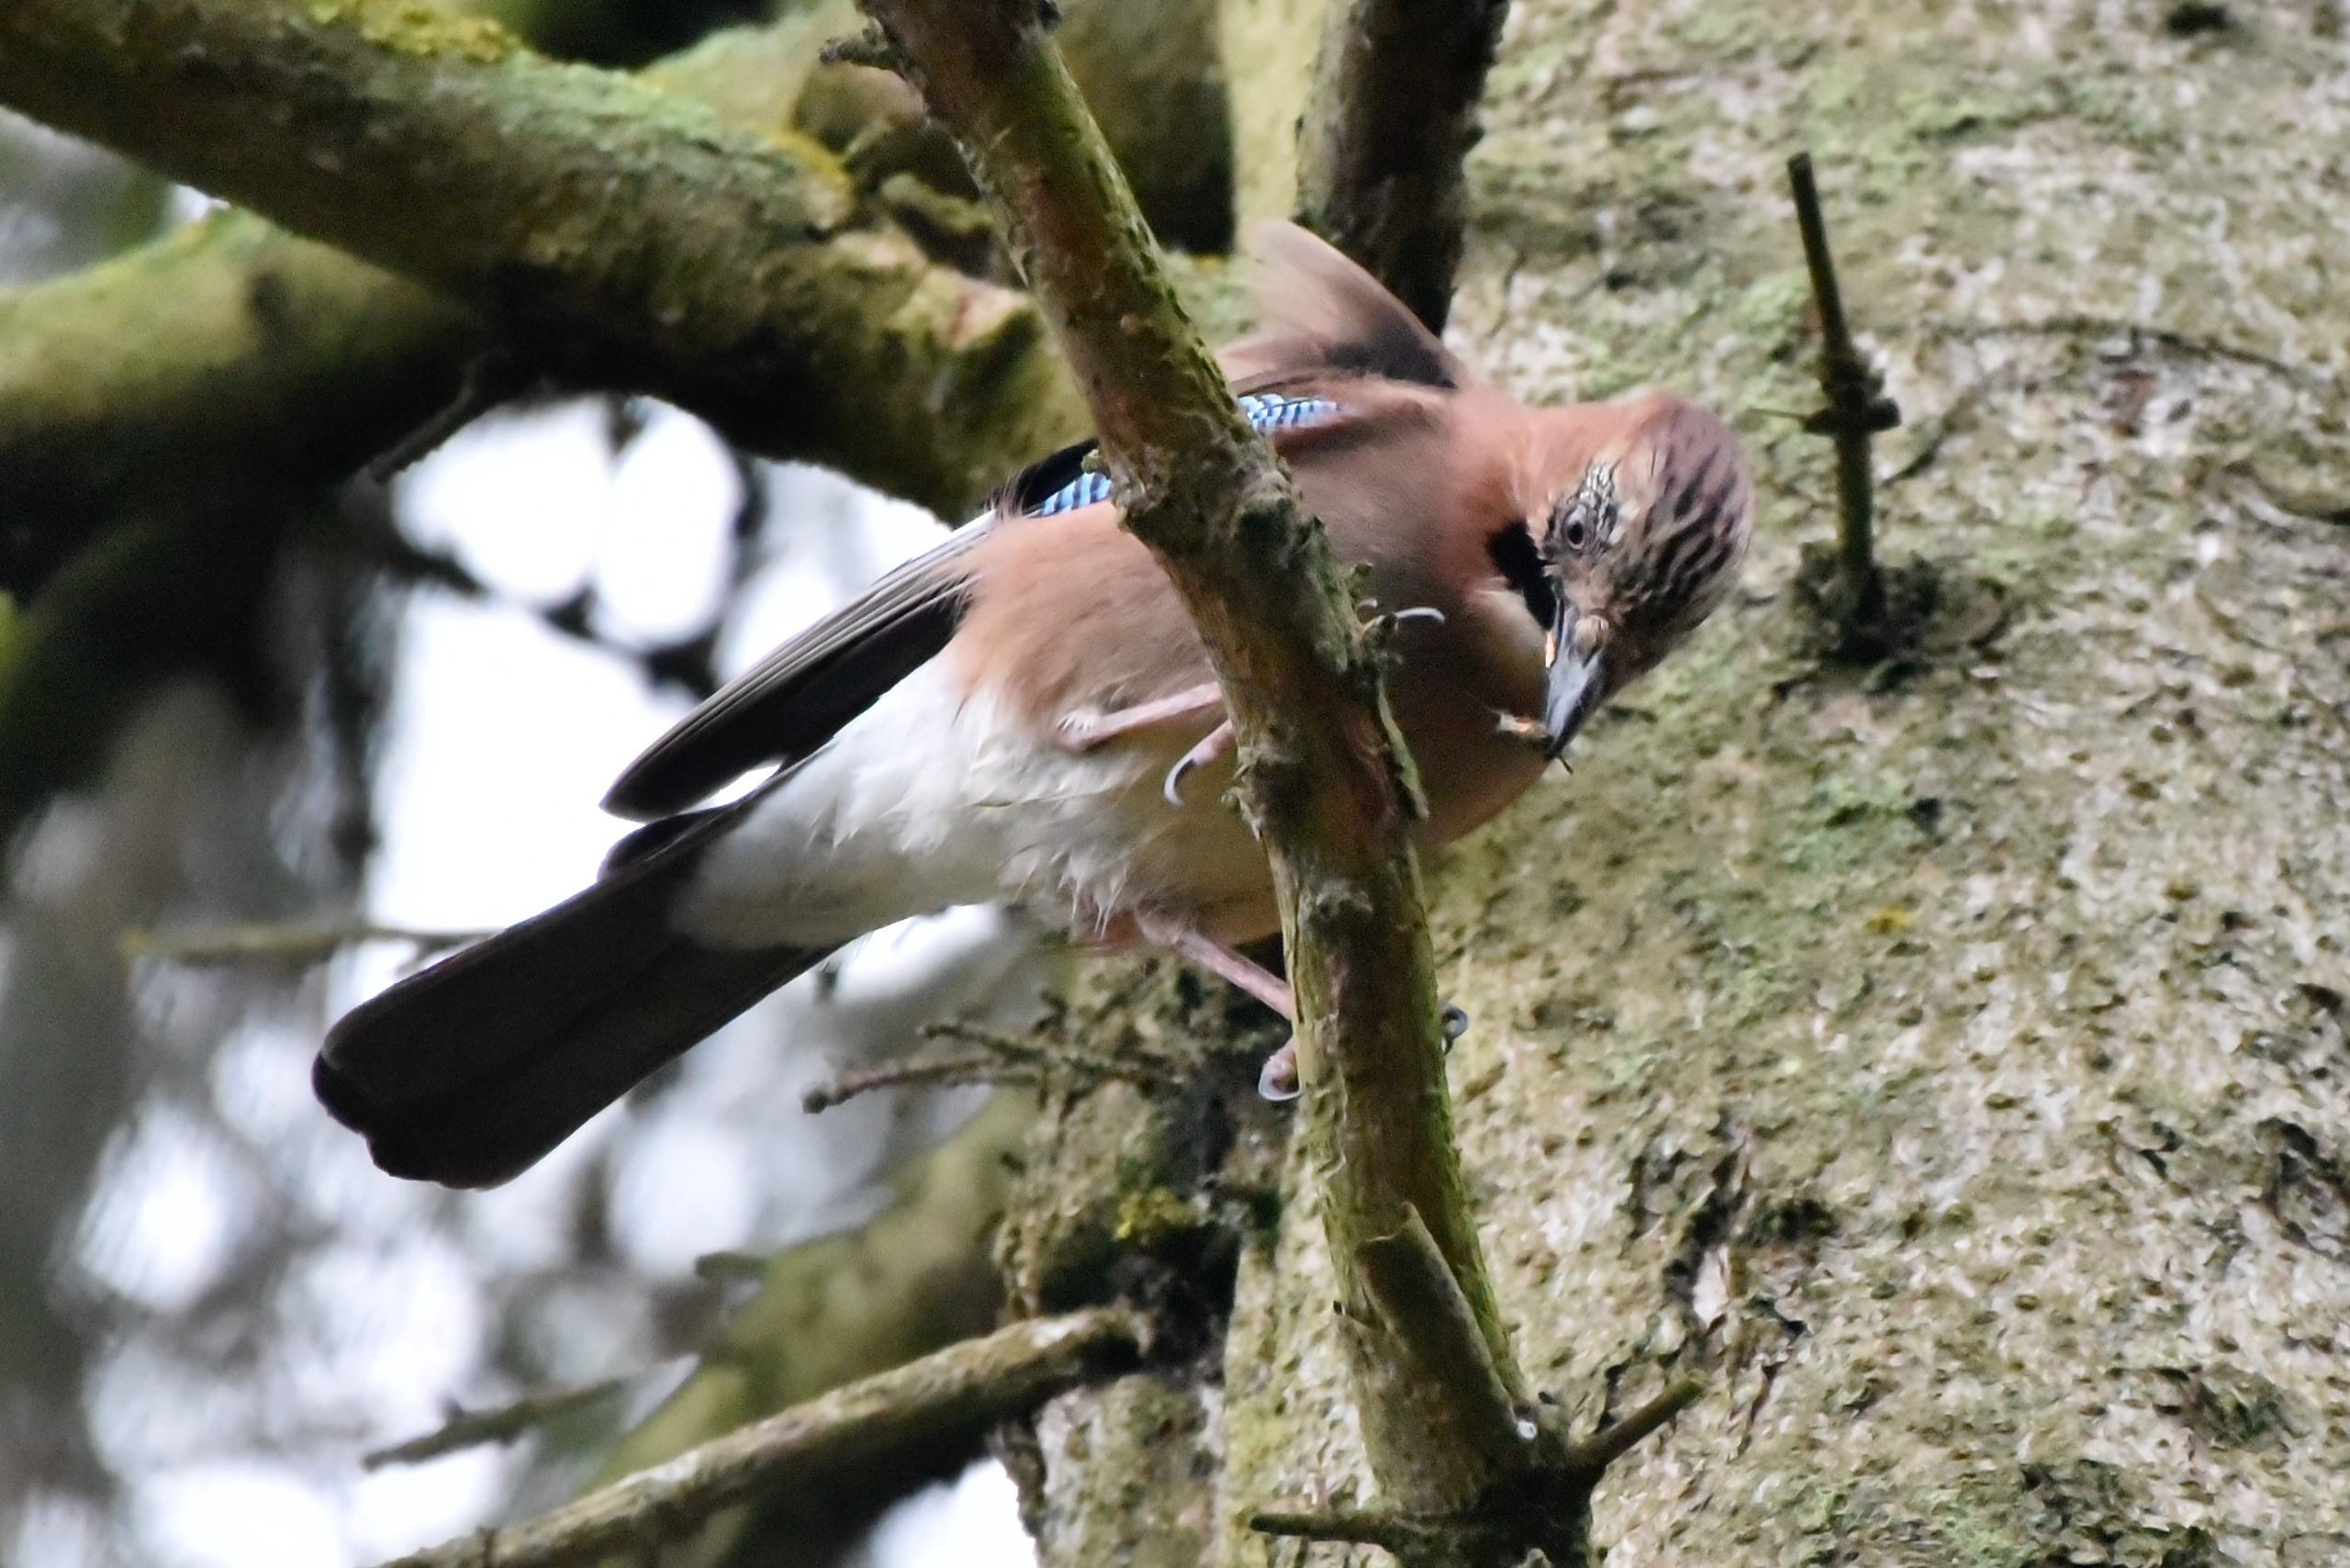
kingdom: Animalia
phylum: Chordata
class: Aves
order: Passeriformes
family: Corvidae
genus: Garrulus
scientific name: Garrulus glandarius
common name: Skovskade
